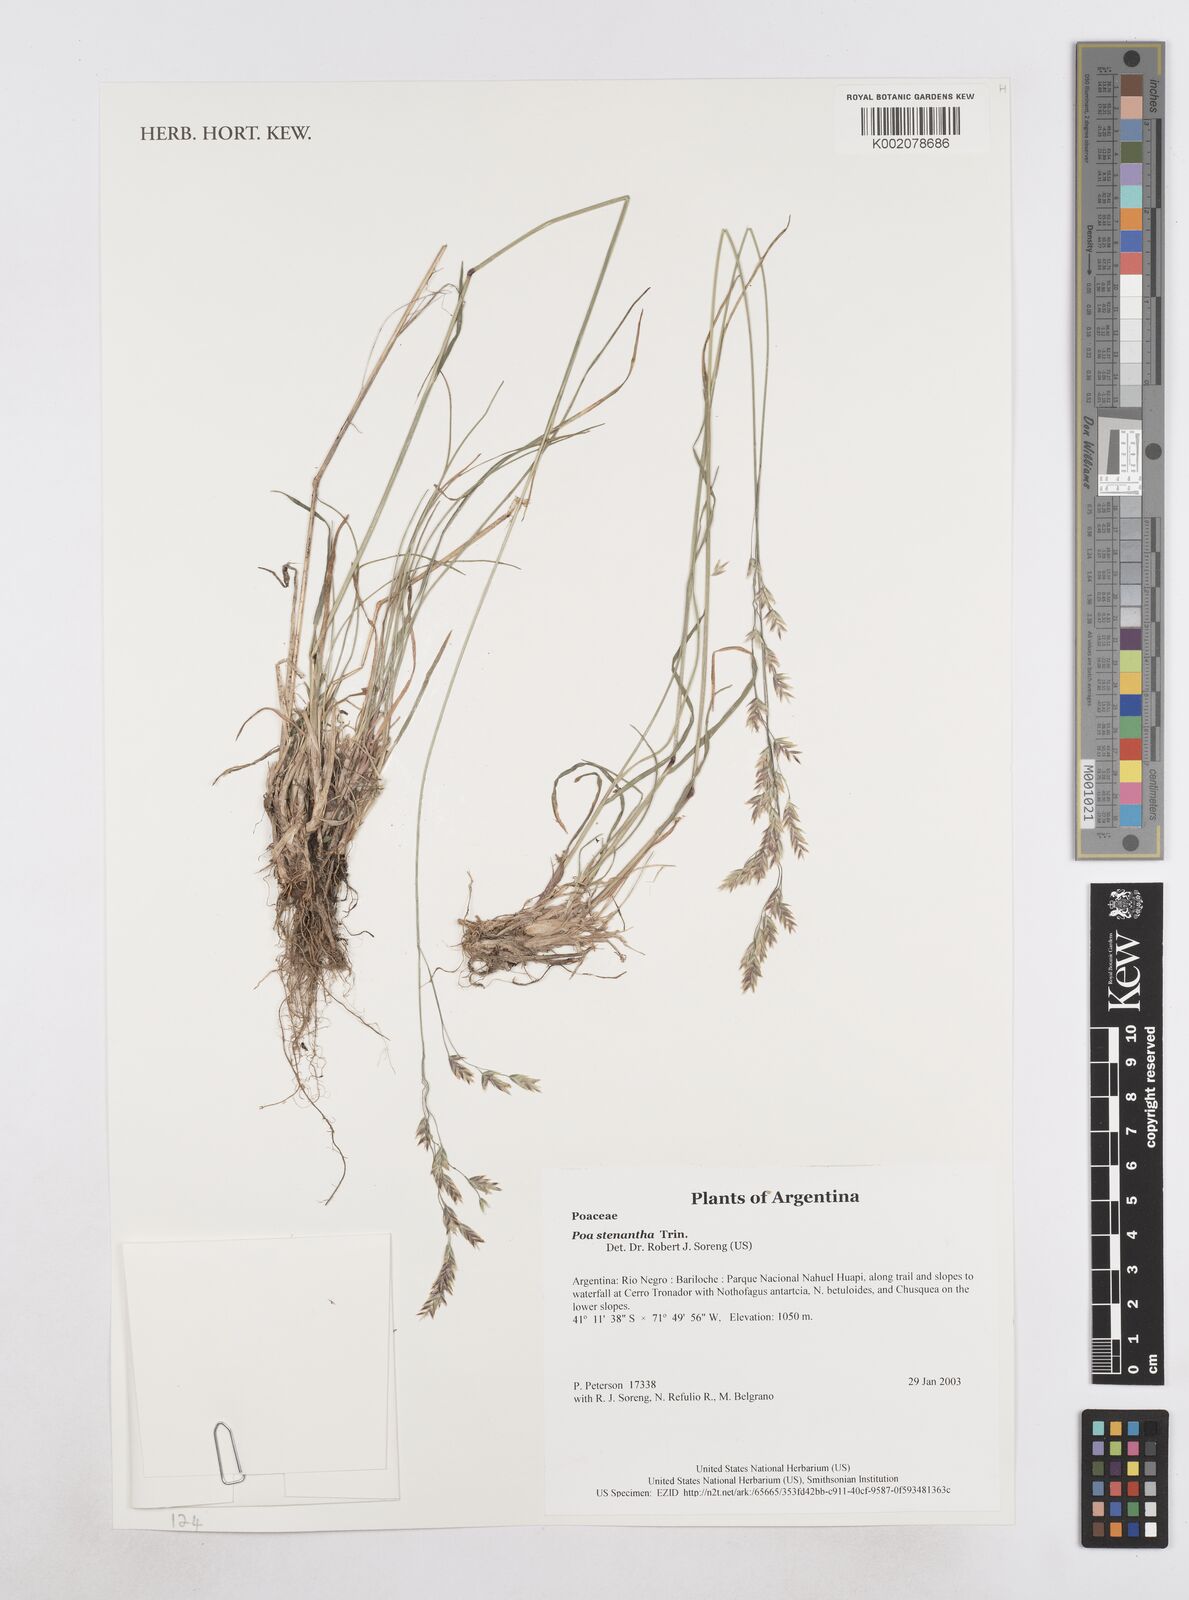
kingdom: Plantae
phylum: Tracheophyta
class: Liliopsida
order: Poales
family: Poaceae
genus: Poa
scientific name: Poa stenantha
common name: Narrow-flowered bluegrass
